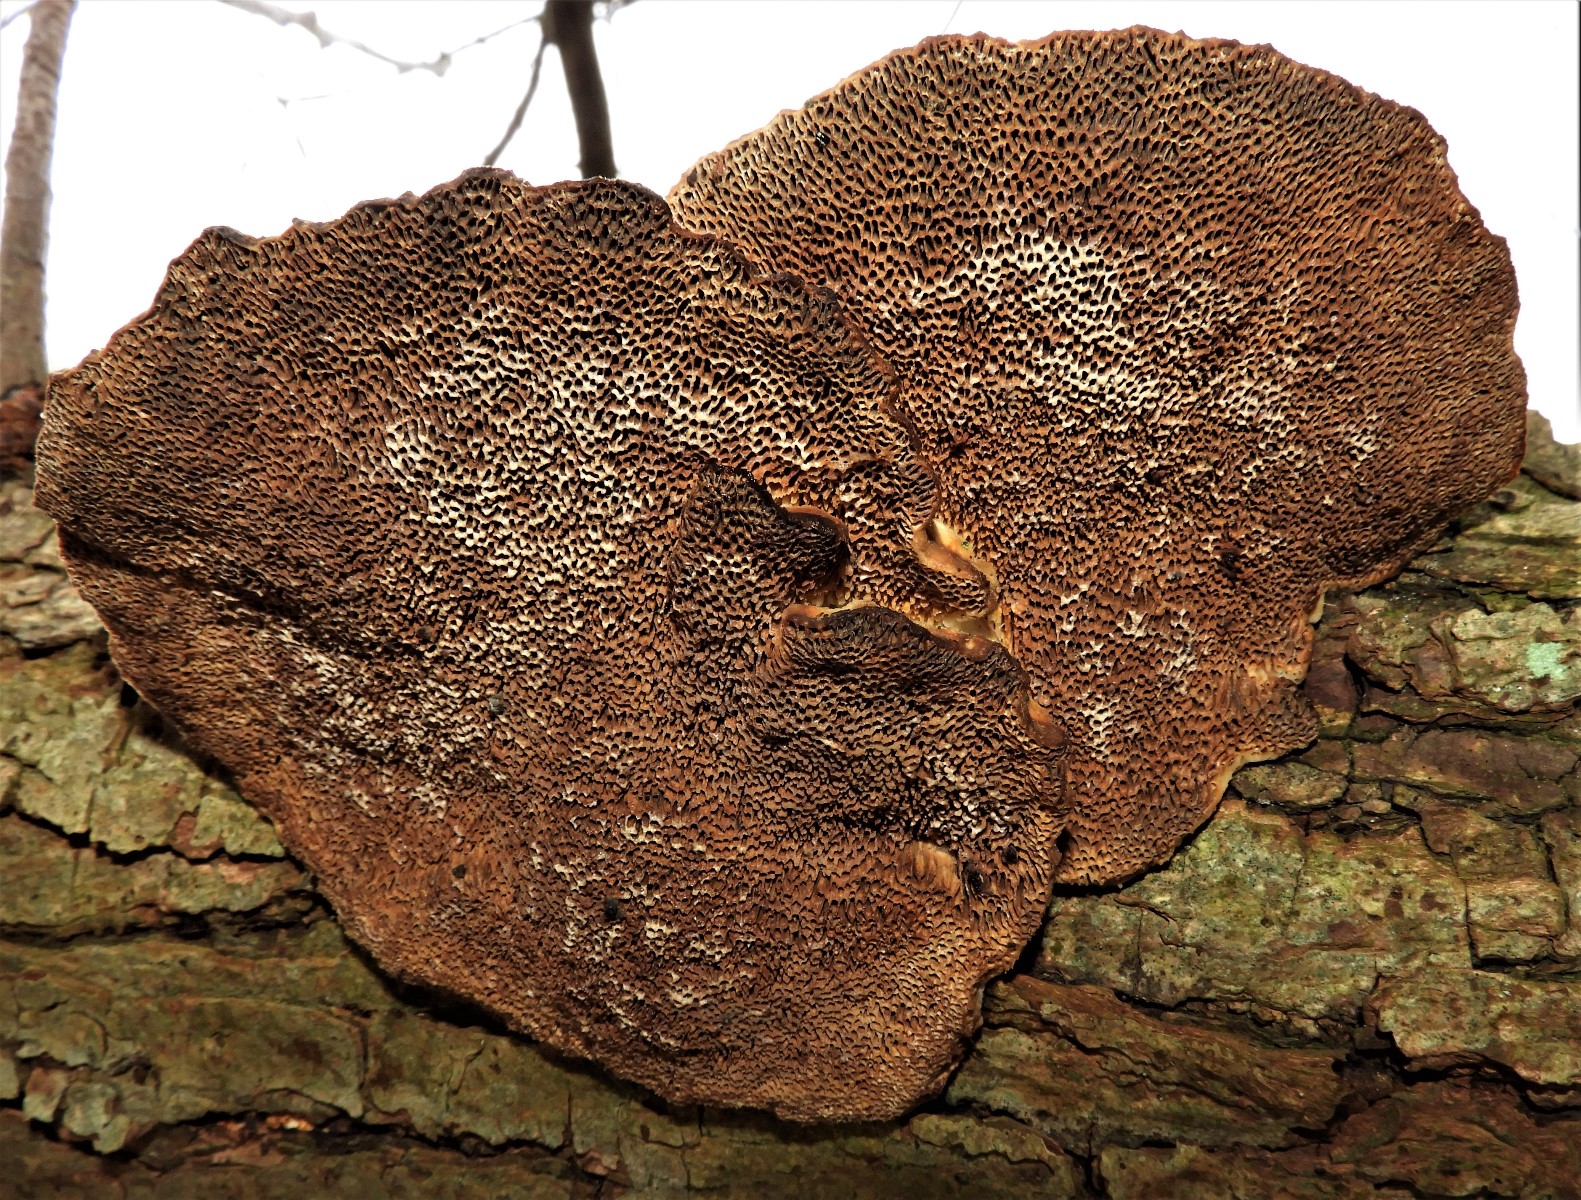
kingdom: Fungi
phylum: Basidiomycota
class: Agaricomycetes
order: Polyporales
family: Polyporaceae
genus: Daedaleopsis
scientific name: Daedaleopsis confragosa
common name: rødmende læderporesvamp
